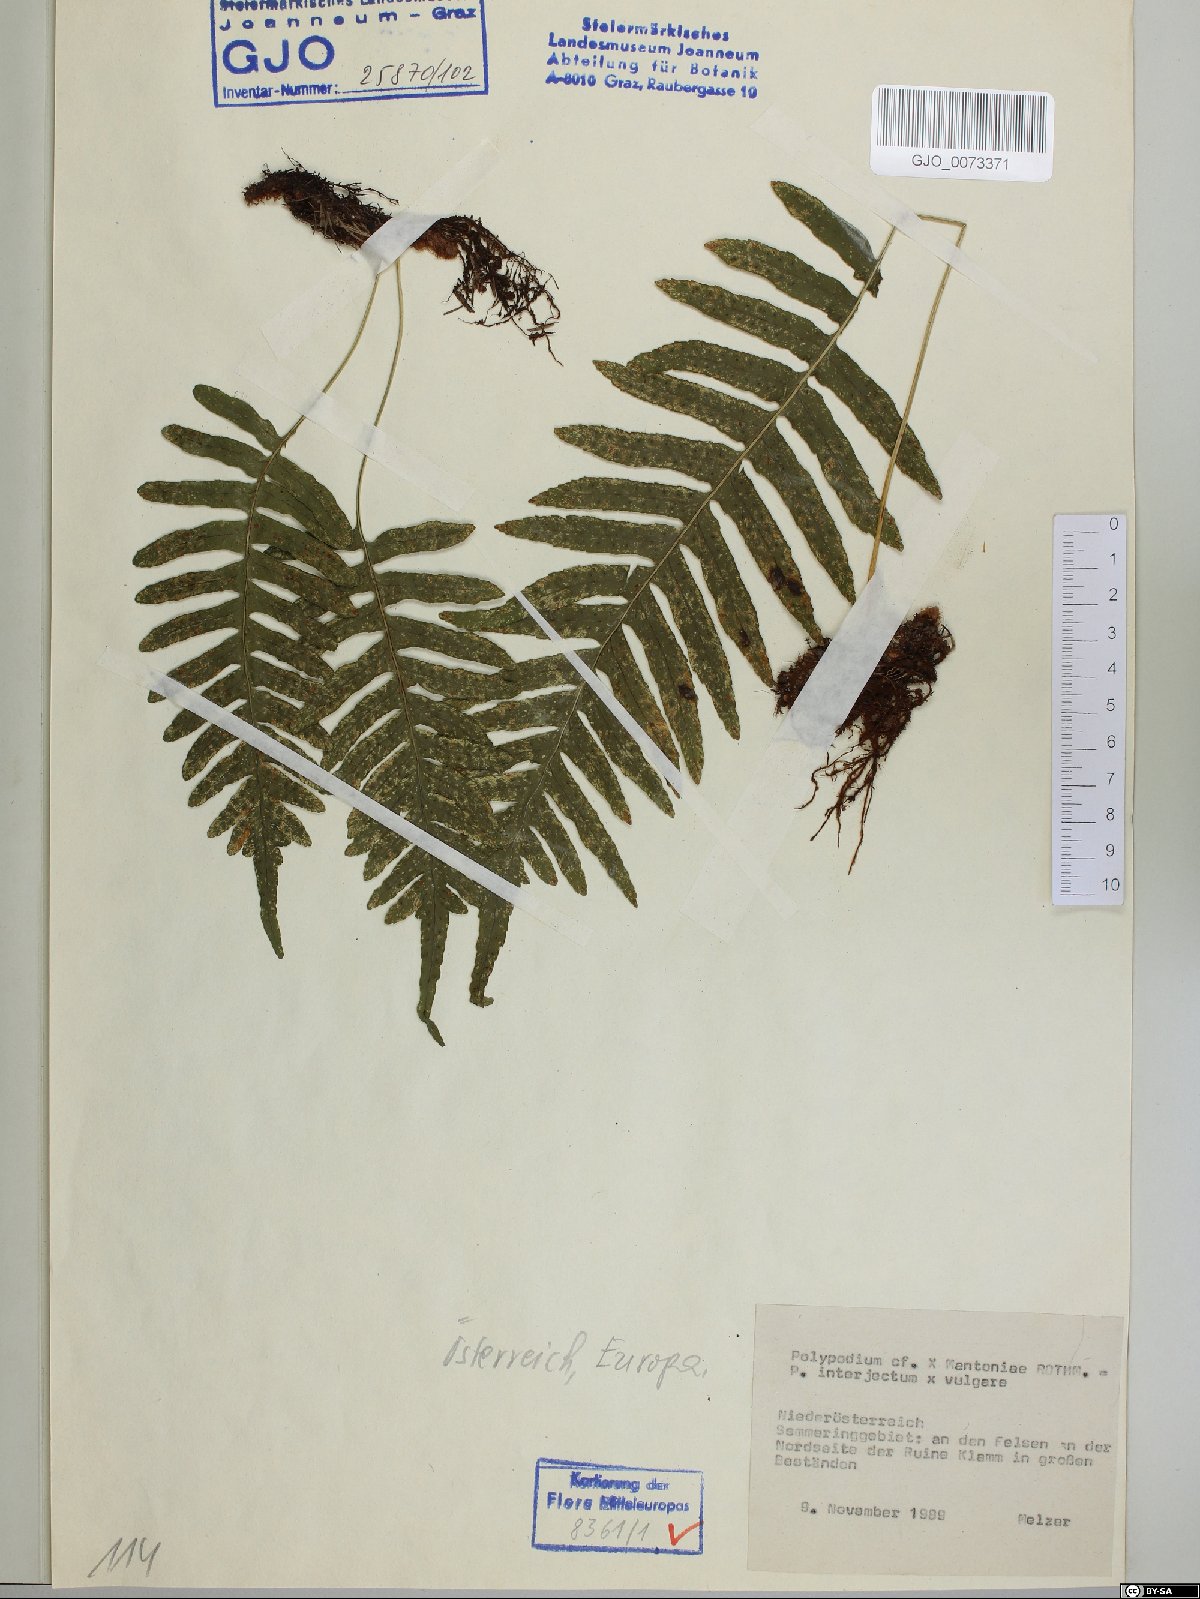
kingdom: Plantae
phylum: Tracheophyta
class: Polypodiopsida
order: Polypodiales
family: Polypodiaceae
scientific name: Polypodiaceae
